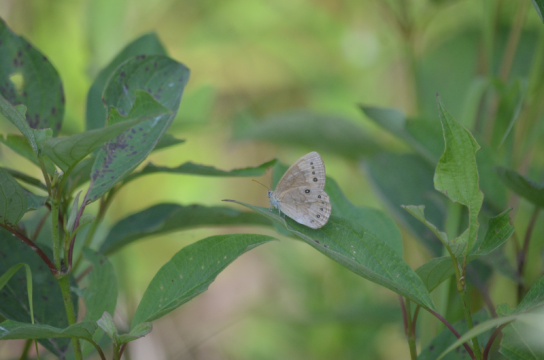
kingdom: Animalia
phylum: Arthropoda
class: Insecta
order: Lepidoptera
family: Nymphalidae
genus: Lethe
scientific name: Lethe eurydice
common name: Eyed Brown
